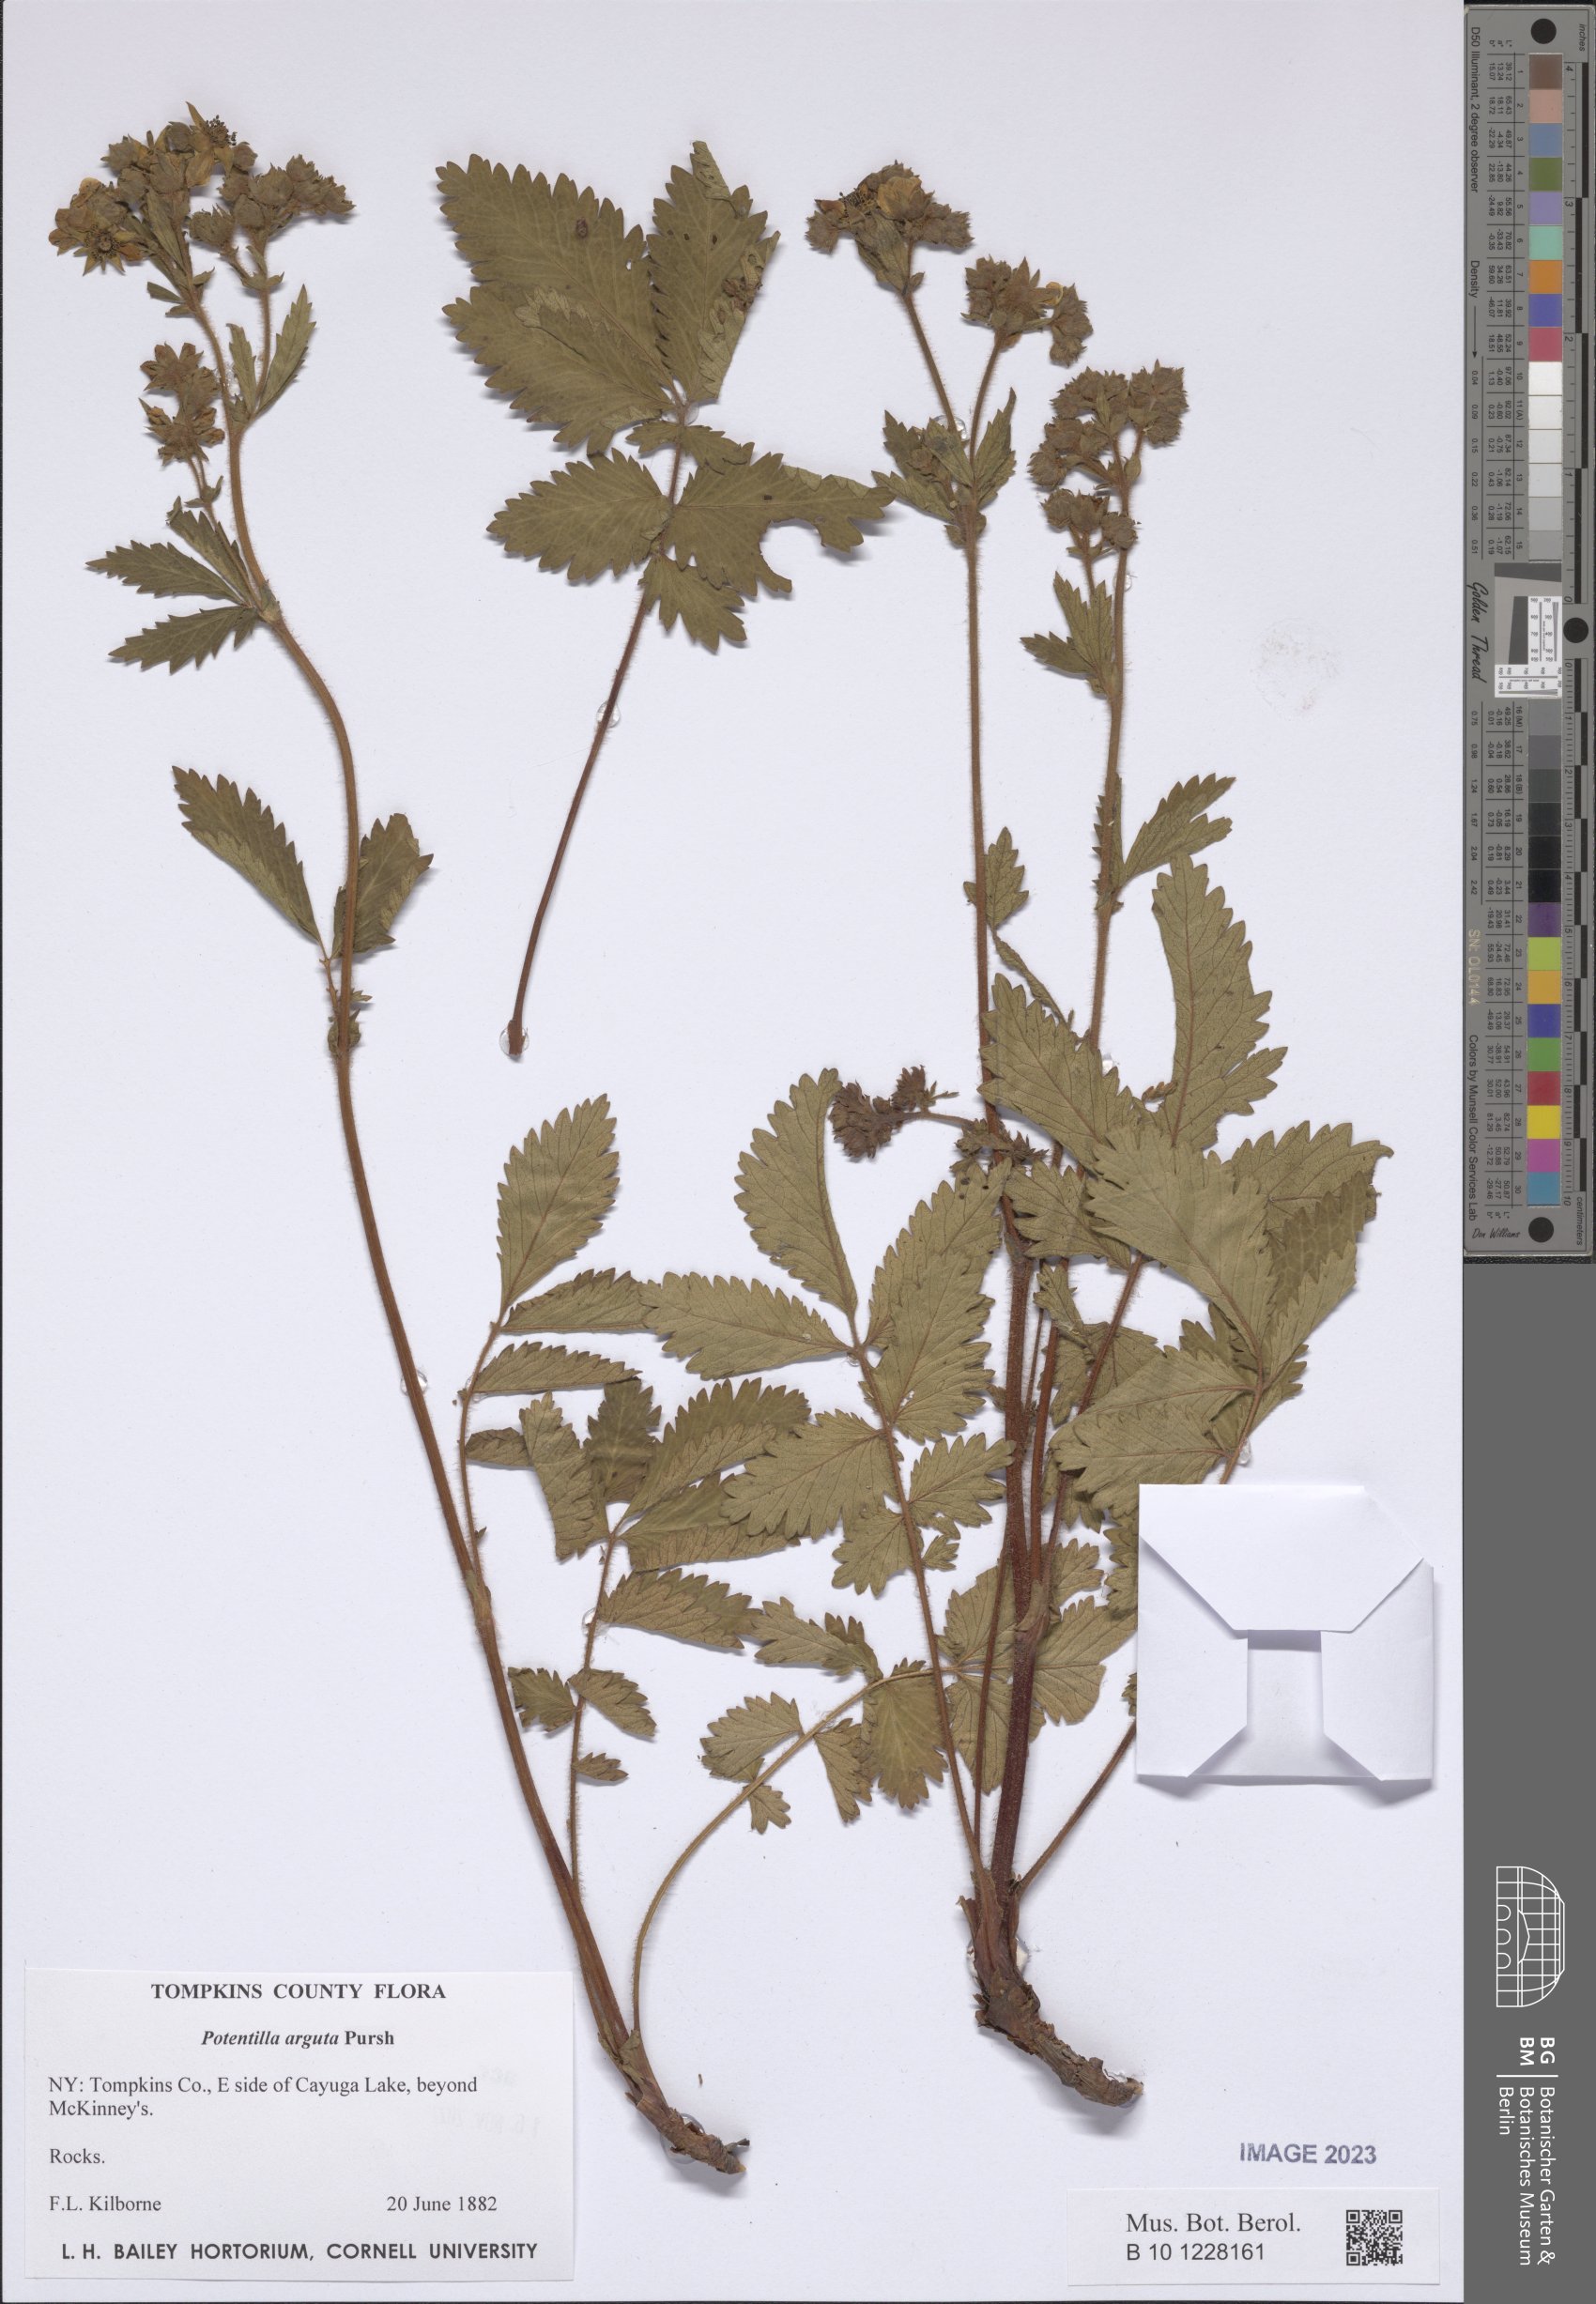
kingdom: Plantae
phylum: Tracheophyta
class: Magnoliopsida
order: Rosales
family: Rosaceae
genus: Drymocallis
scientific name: Drymocallis arguta
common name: Tall cinquefoil
